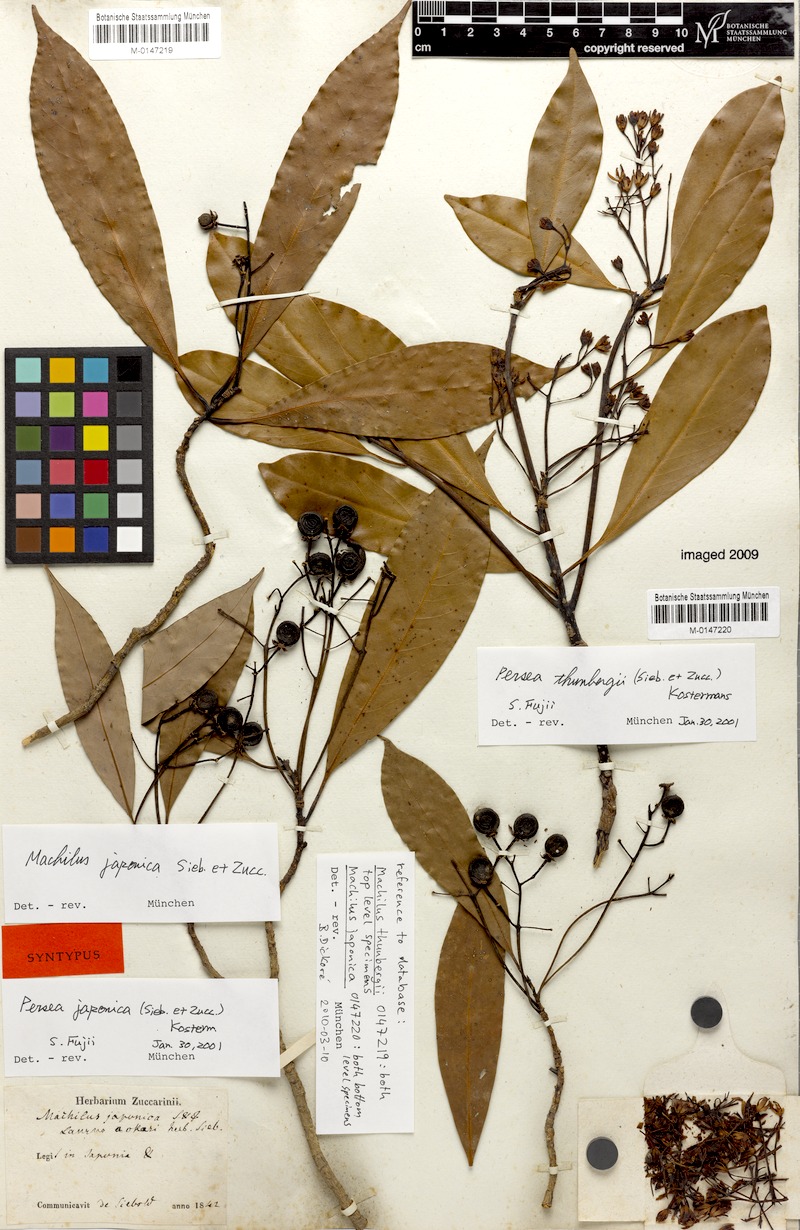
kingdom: Plantae
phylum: Tracheophyta
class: Magnoliopsida
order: Laurales
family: Lauraceae
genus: Machilus
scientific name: Machilus japonica
